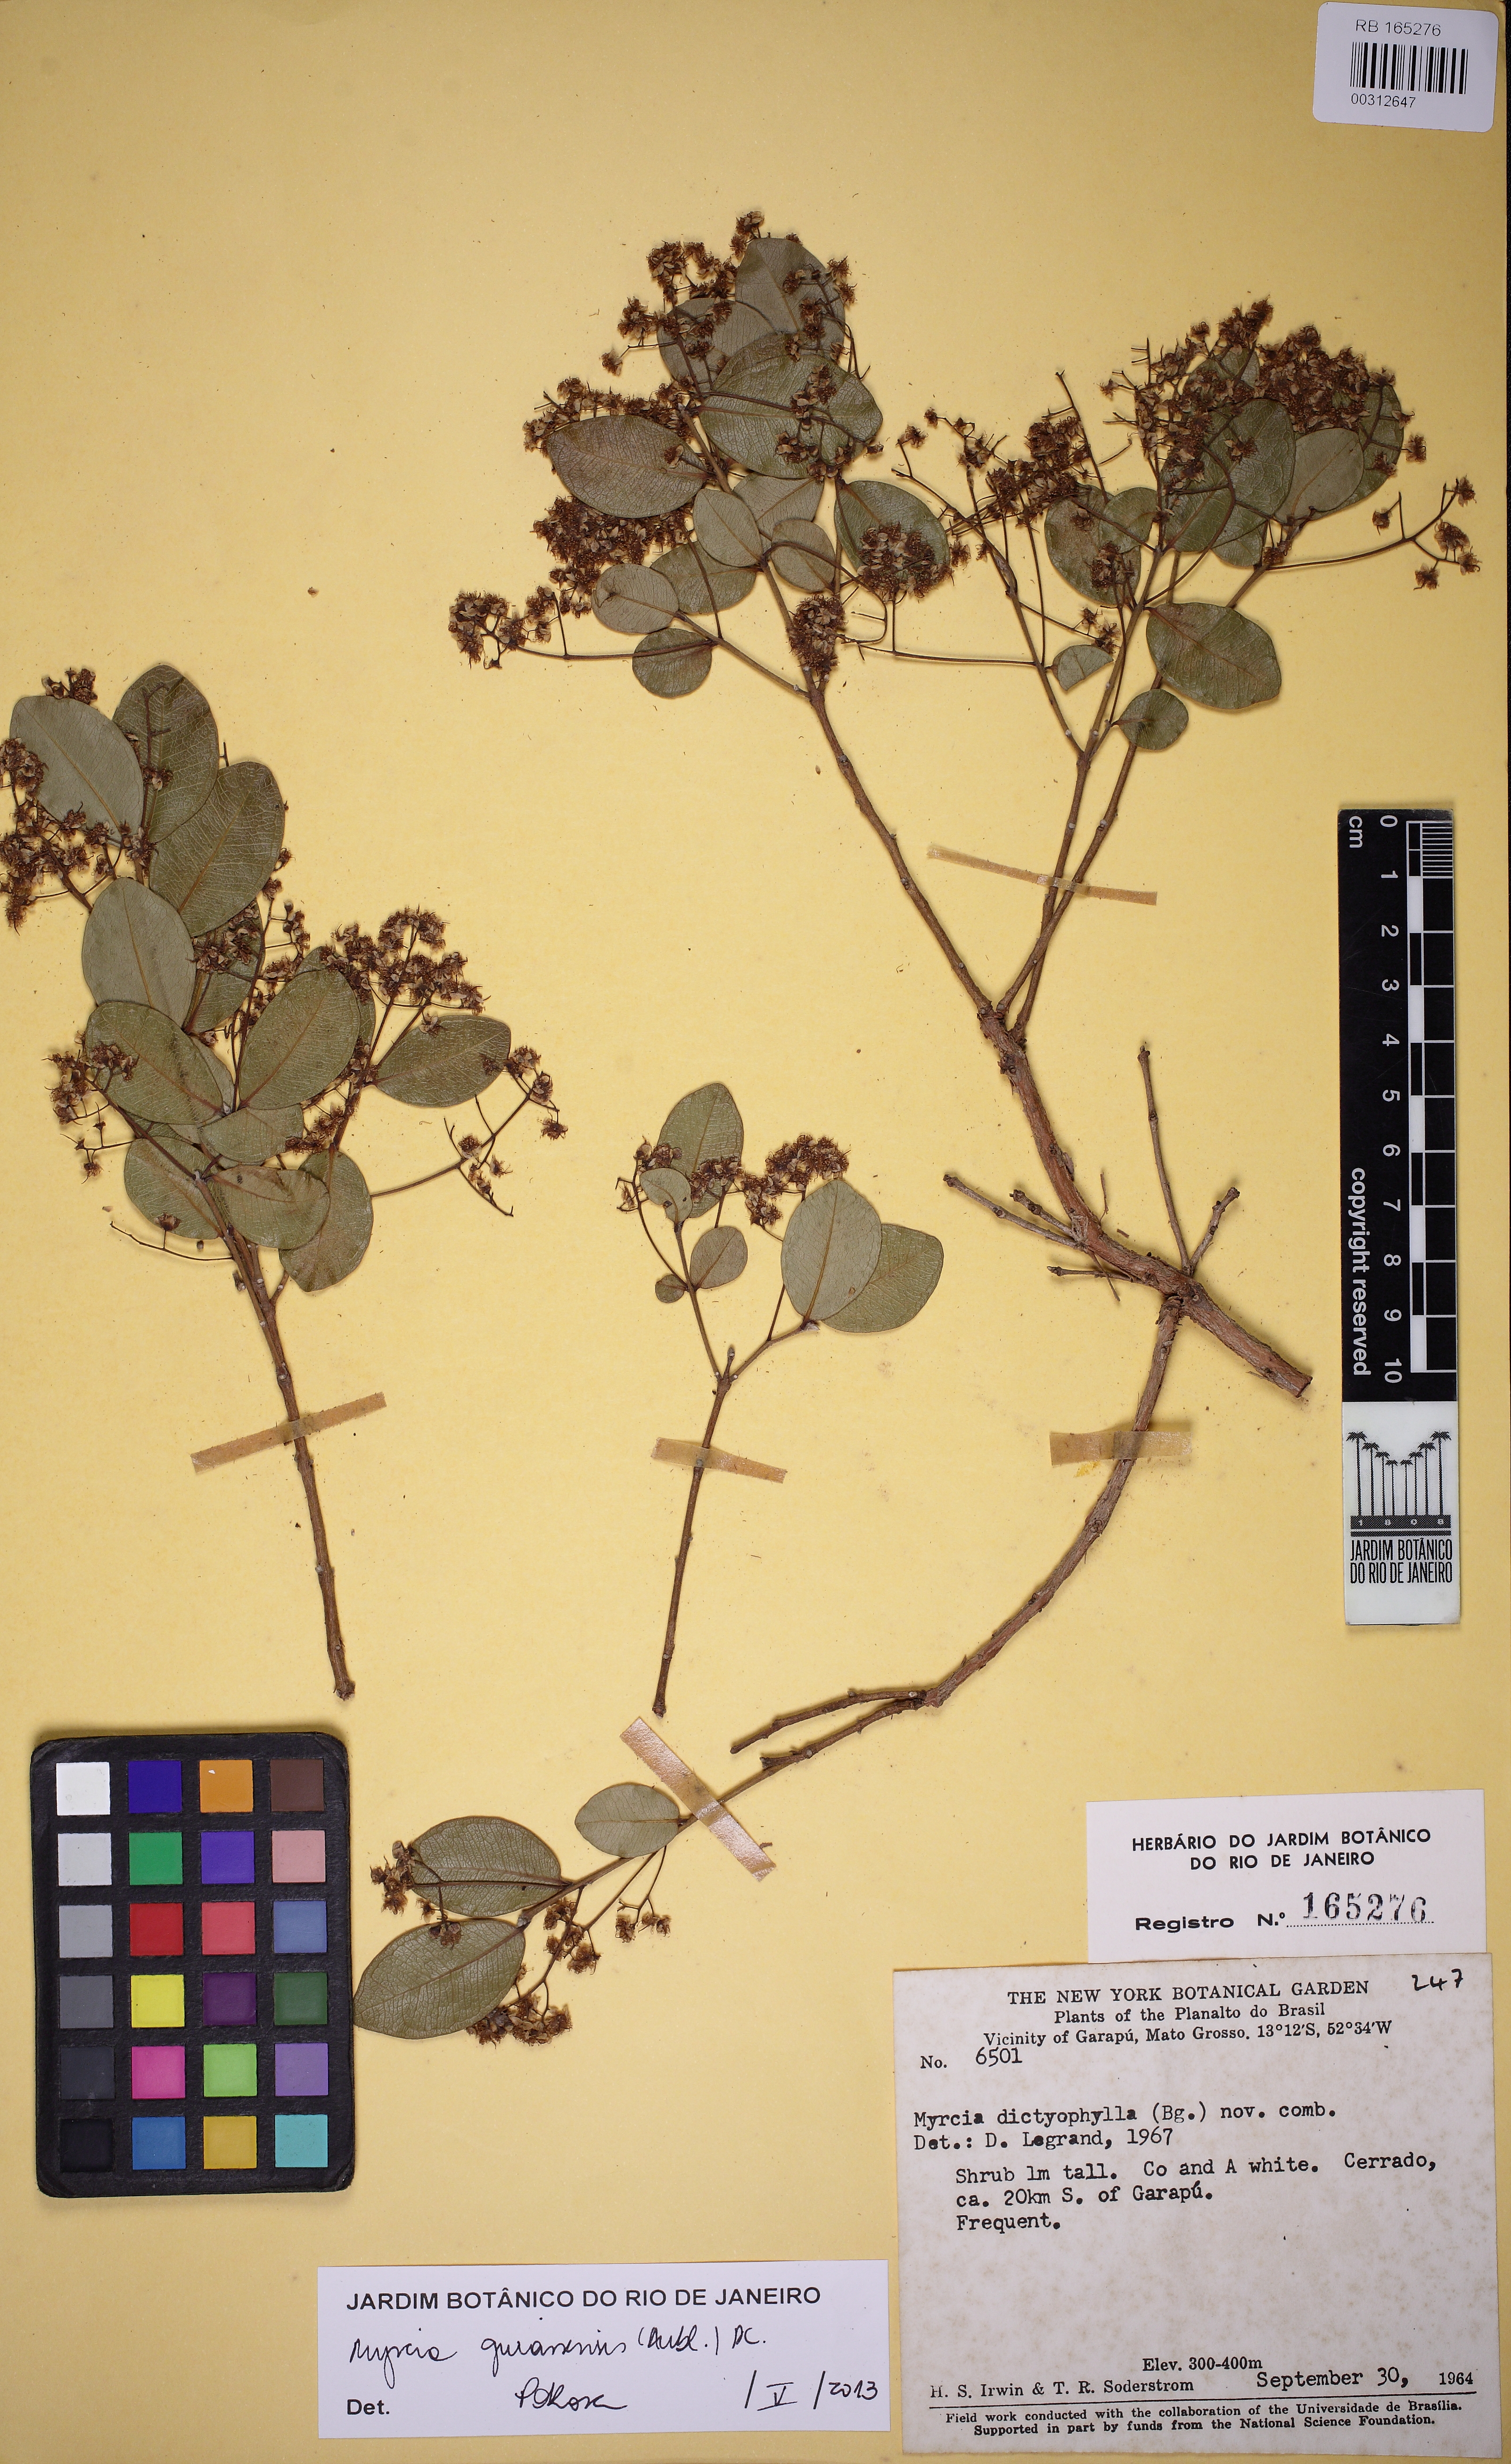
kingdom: Plantae
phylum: Tracheophyta
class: Magnoliopsida
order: Myrtales
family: Myrtaceae
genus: Myrcia
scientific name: Myrcia multiflora
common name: Pedra hume
